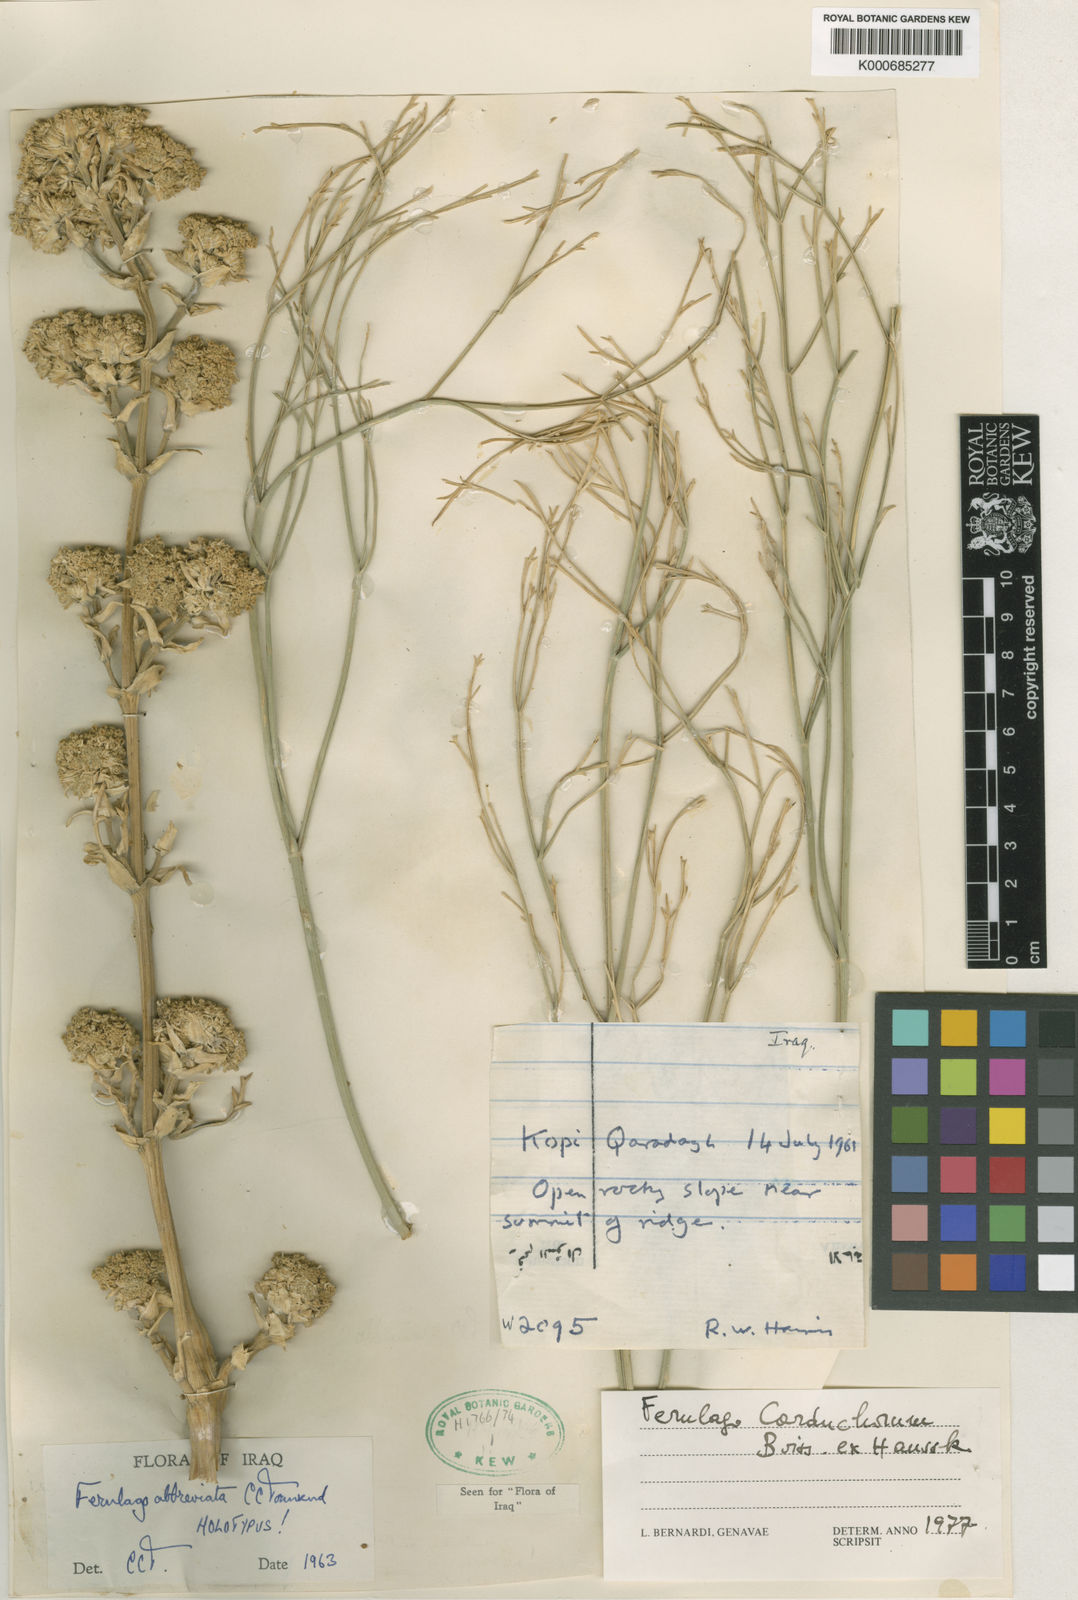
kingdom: Plantae
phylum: Tracheophyta
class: Magnoliopsida
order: Apiales
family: Apiaceae
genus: Ferulago
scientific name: Ferulago carduchorum
